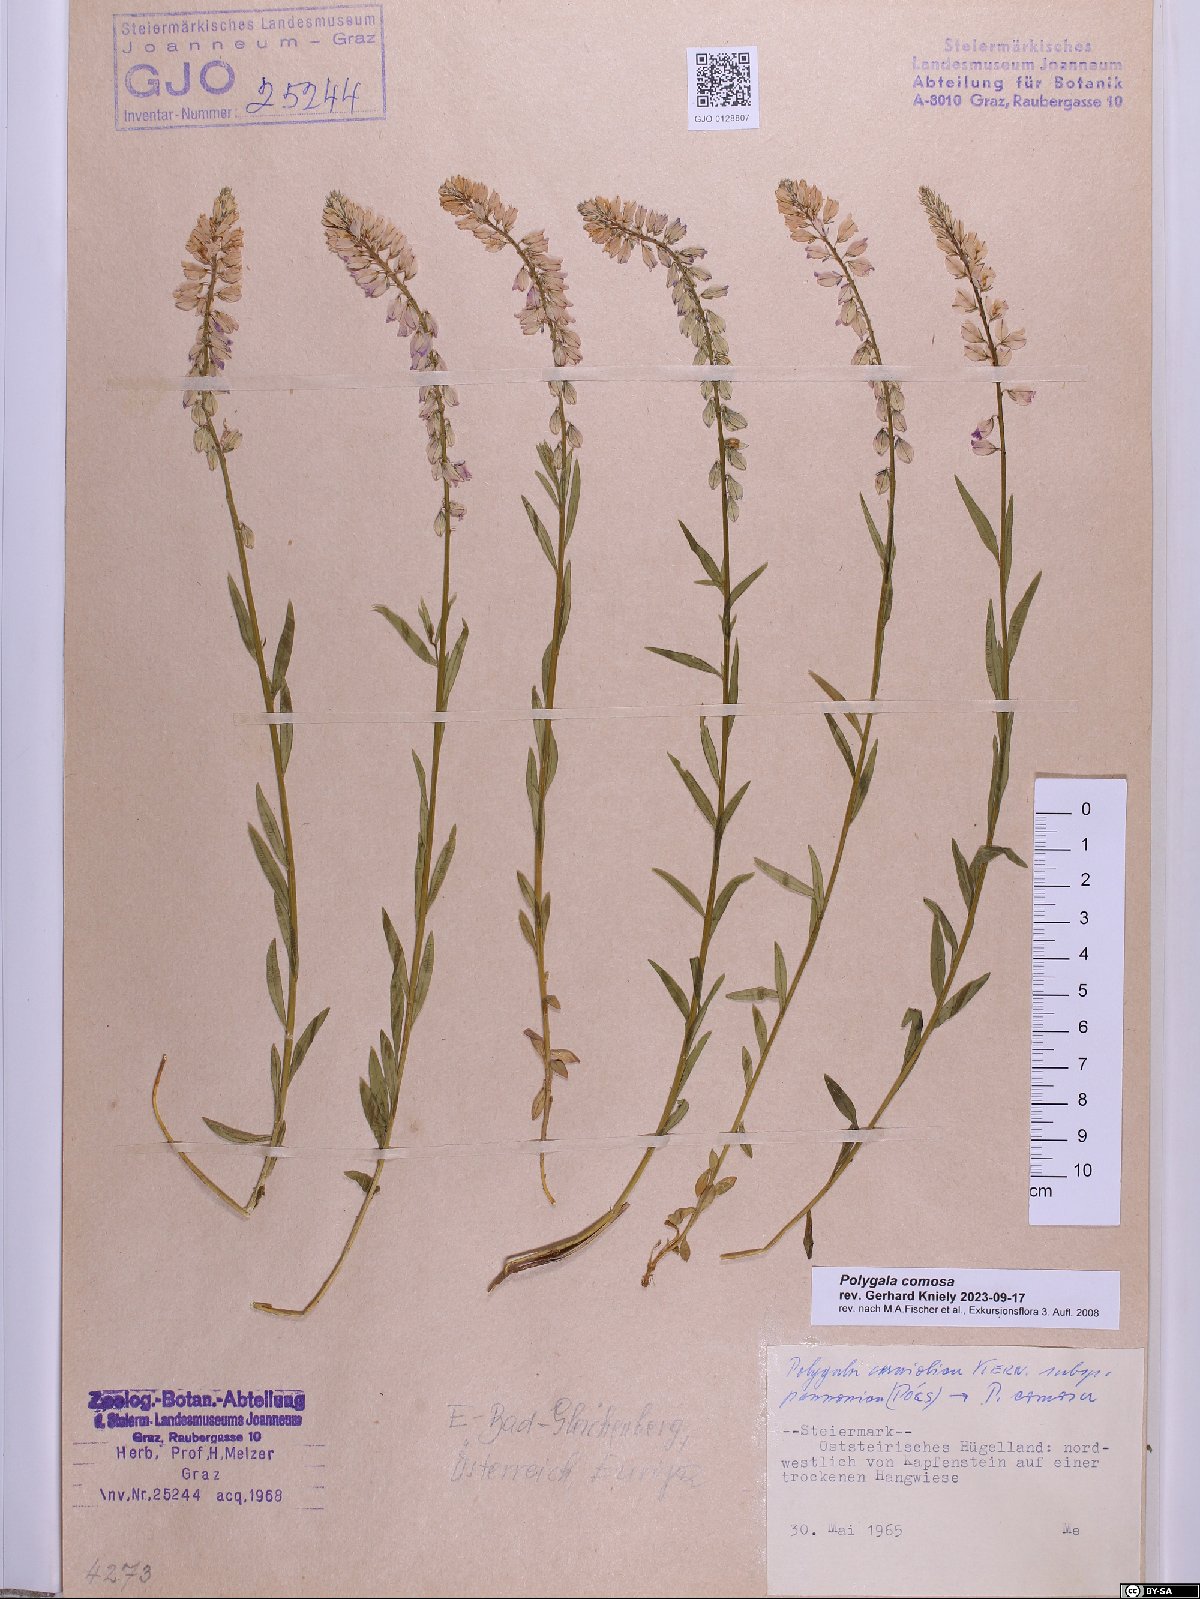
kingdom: Plantae
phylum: Tracheophyta
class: Magnoliopsida
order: Fabales
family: Polygalaceae
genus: Polygala
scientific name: Polygala comosa
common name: Tufted milkwort
